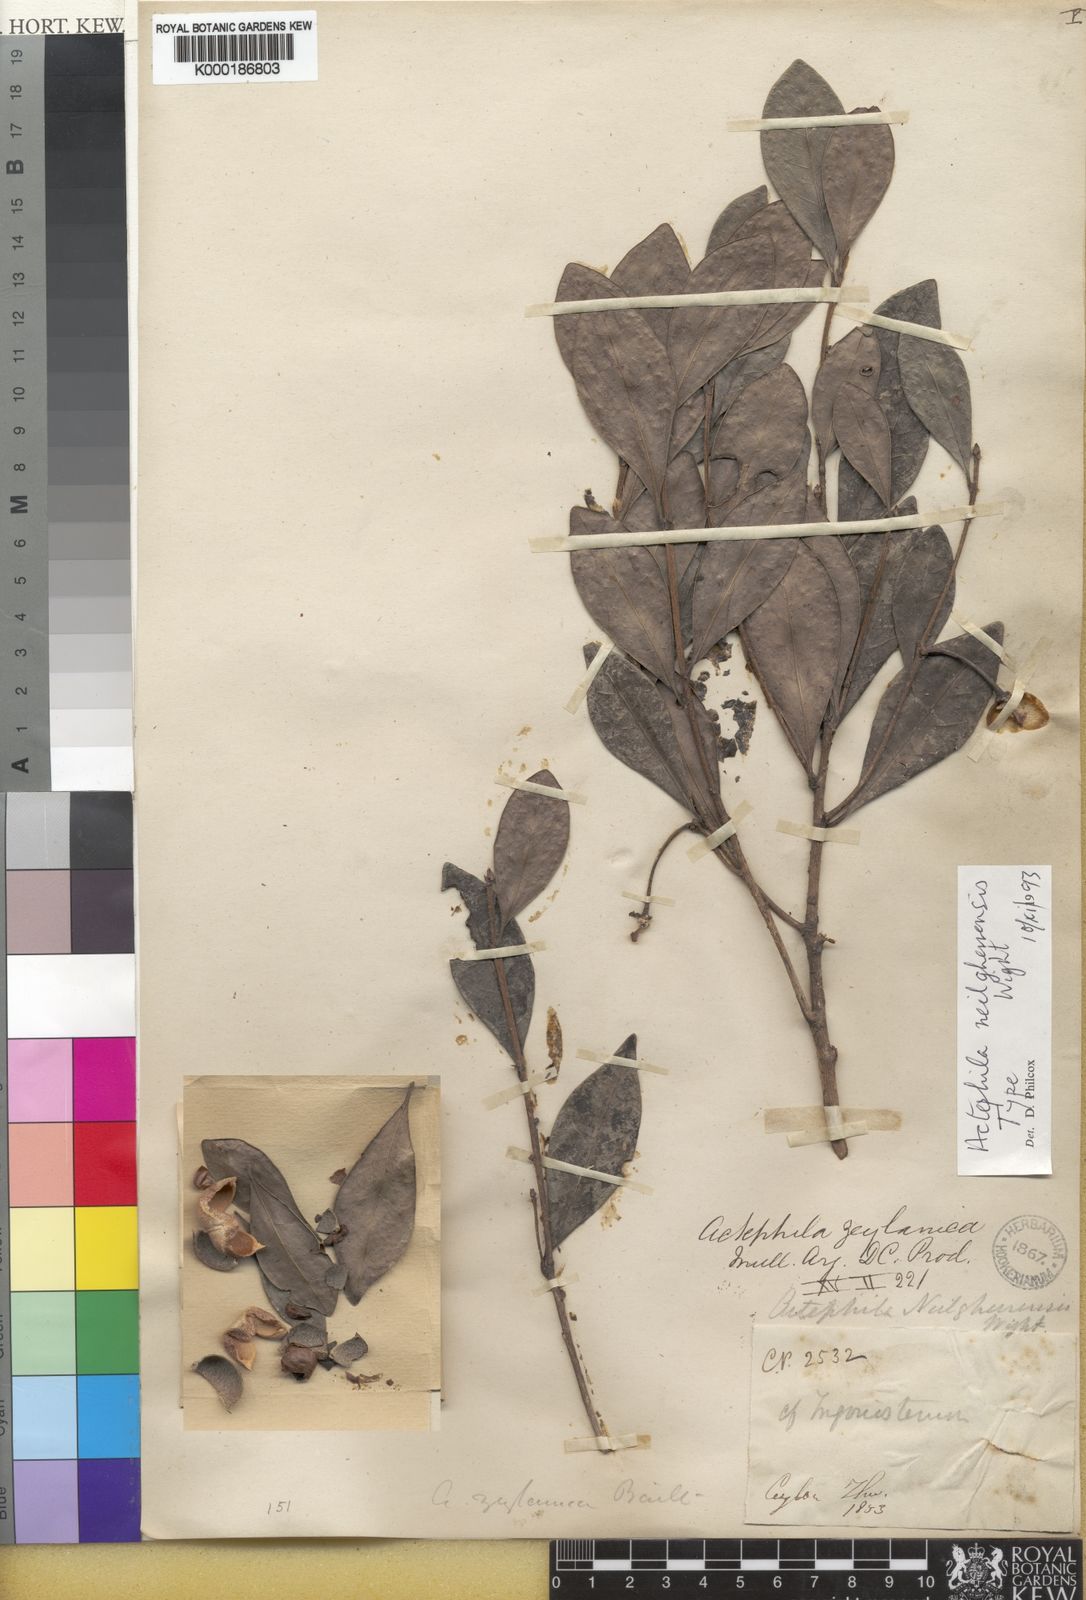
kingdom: Plantae
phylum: Tracheophyta
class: Magnoliopsida
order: Malpighiales
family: Phyllanthaceae
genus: Actephila
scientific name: Actephila excelsa
